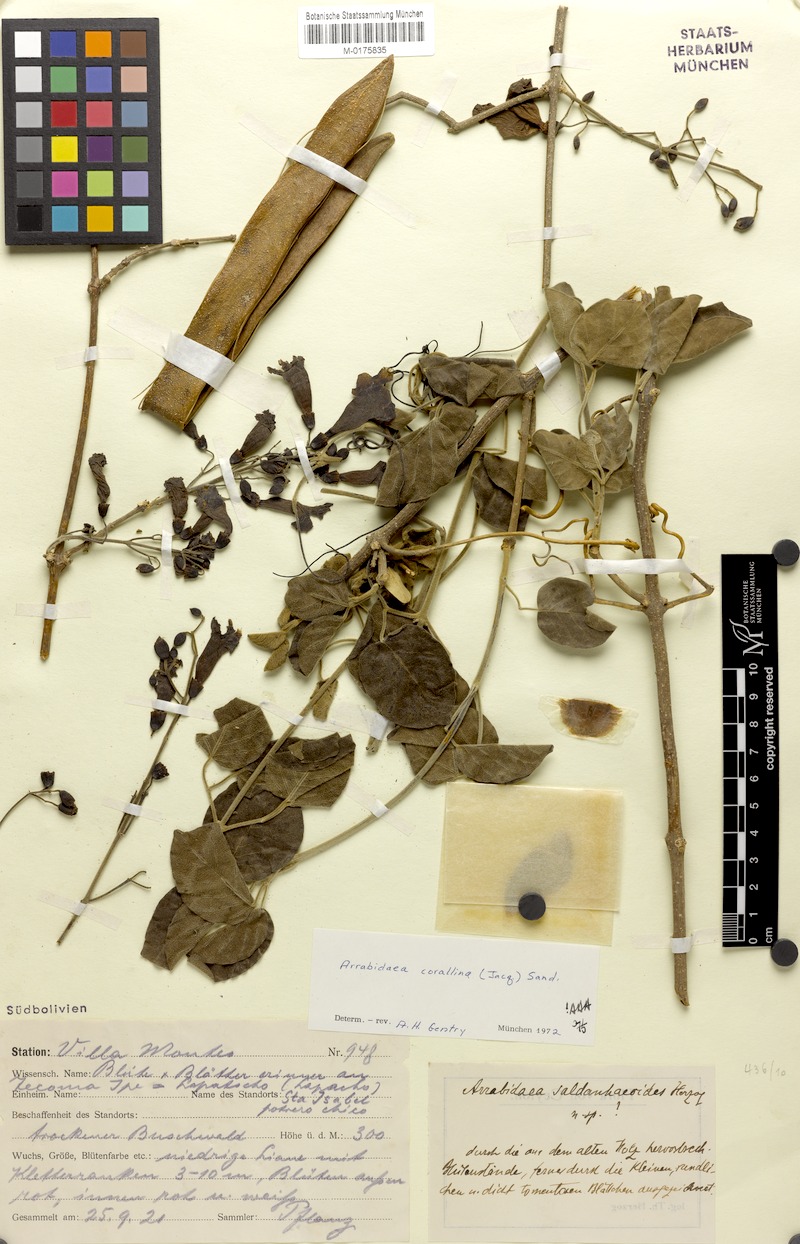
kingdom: Plantae
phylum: Tracheophyta
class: Magnoliopsida
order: Lamiales
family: Bignoniaceae
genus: Tanaecium
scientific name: Tanaecium dichotomum
